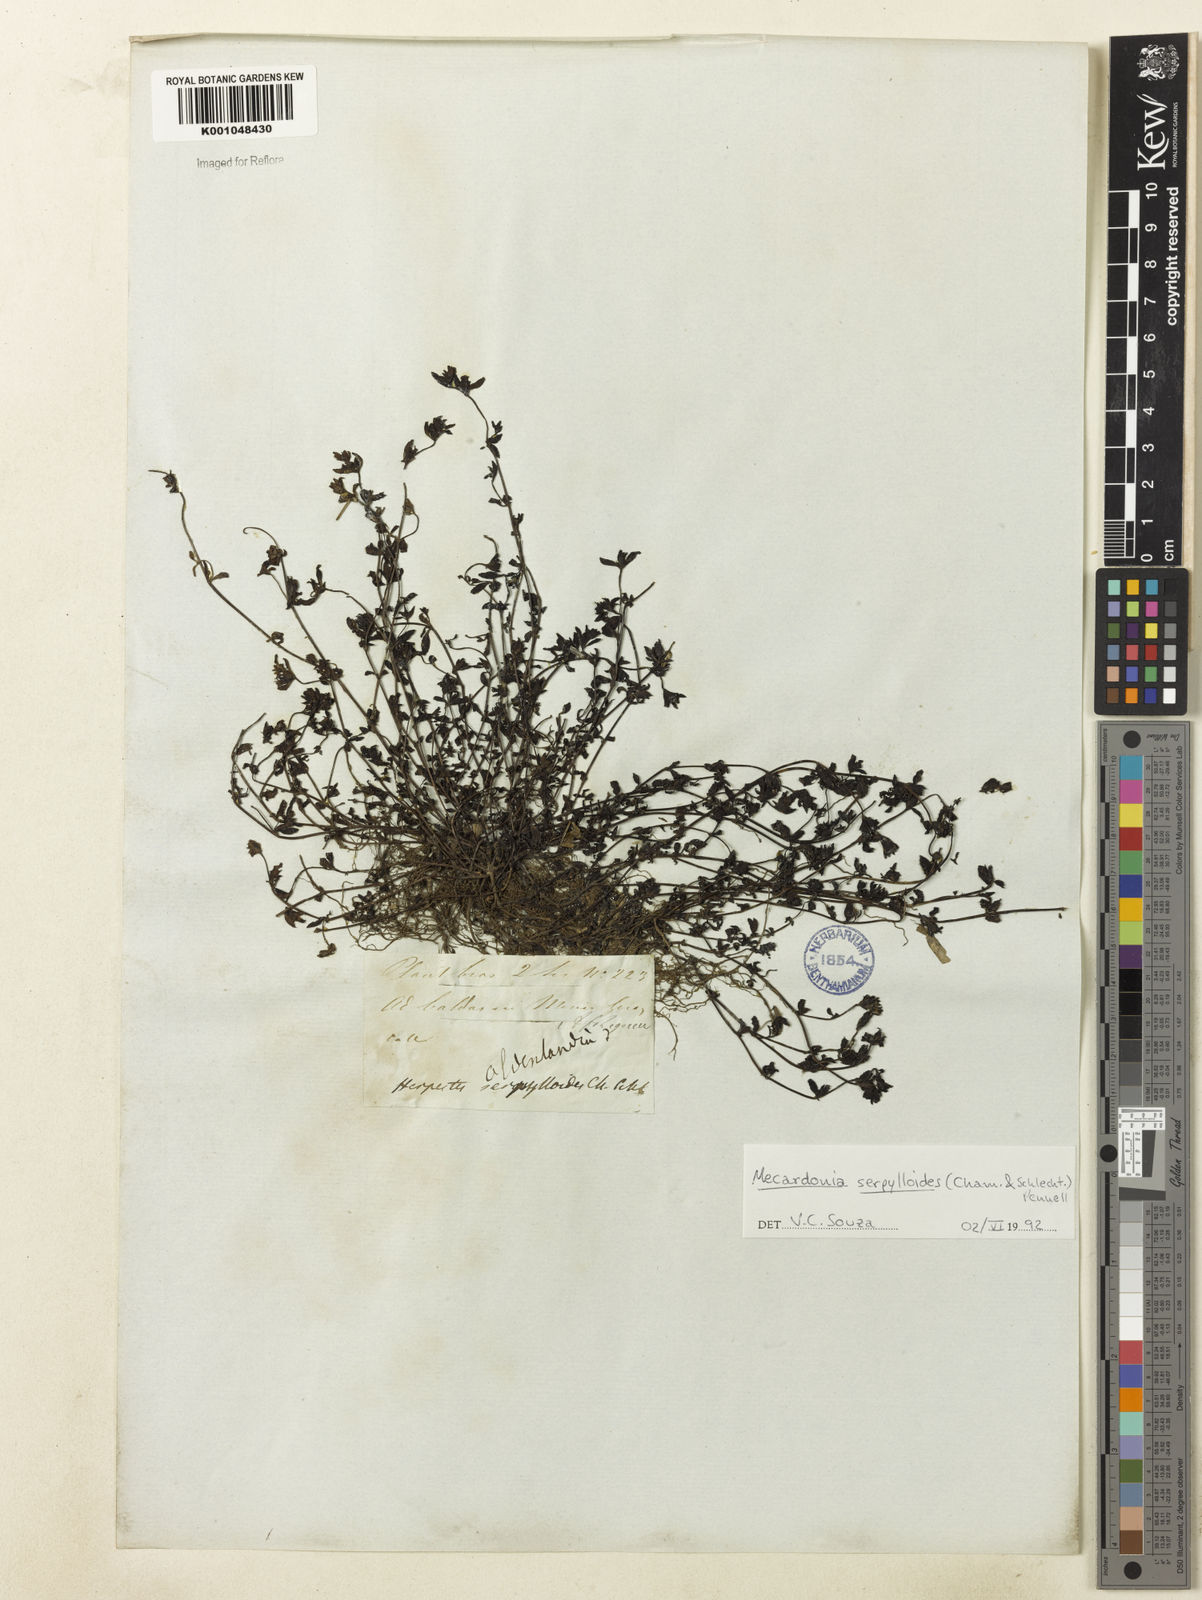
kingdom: Plantae
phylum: Tracheophyta
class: Magnoliopsida
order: Lamiales
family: Plantaginaceae
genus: Mecardonia
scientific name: Mecardonia serpylloides
